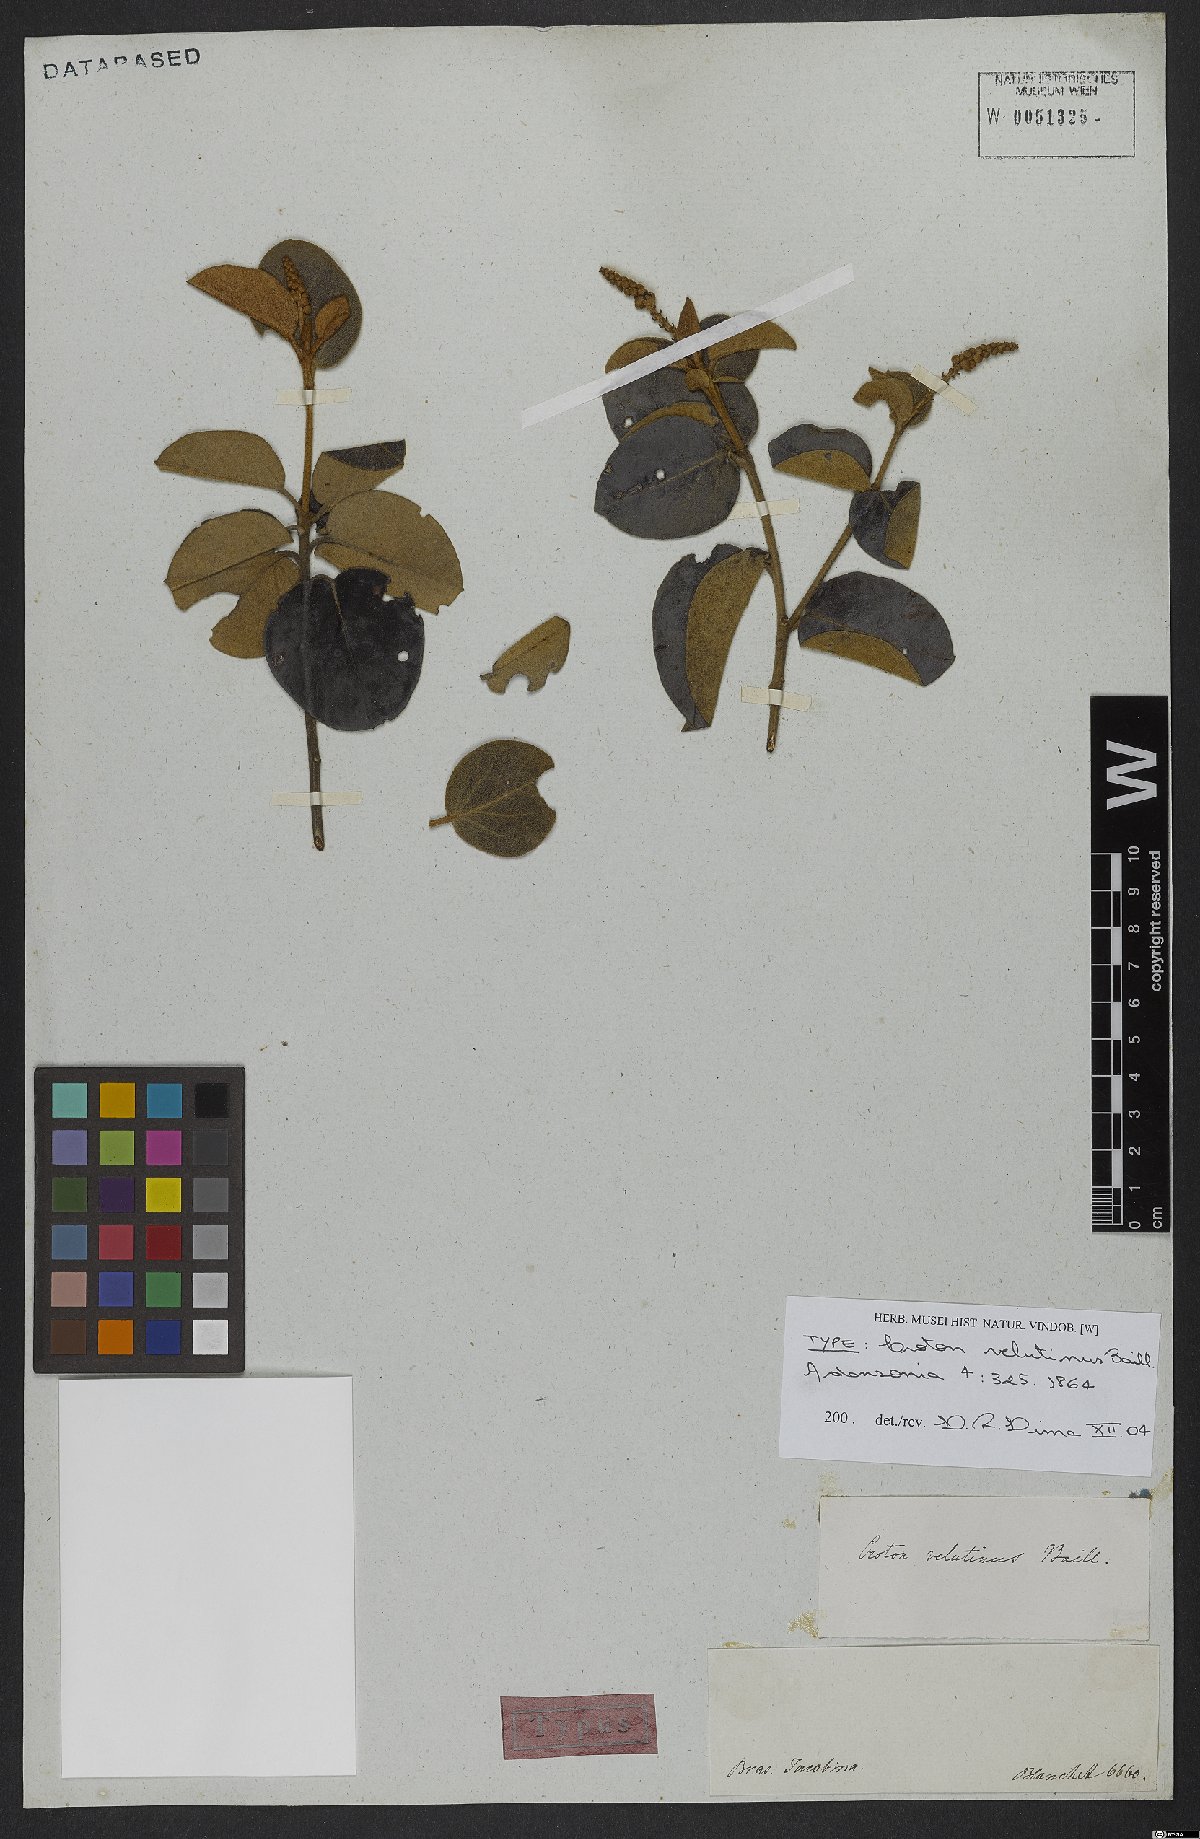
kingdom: Plantae
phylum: Tracheophyta
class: Magnoliopsida
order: Malpighiales
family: Euphorbiaceae
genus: Croton
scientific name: Croton velutinus
